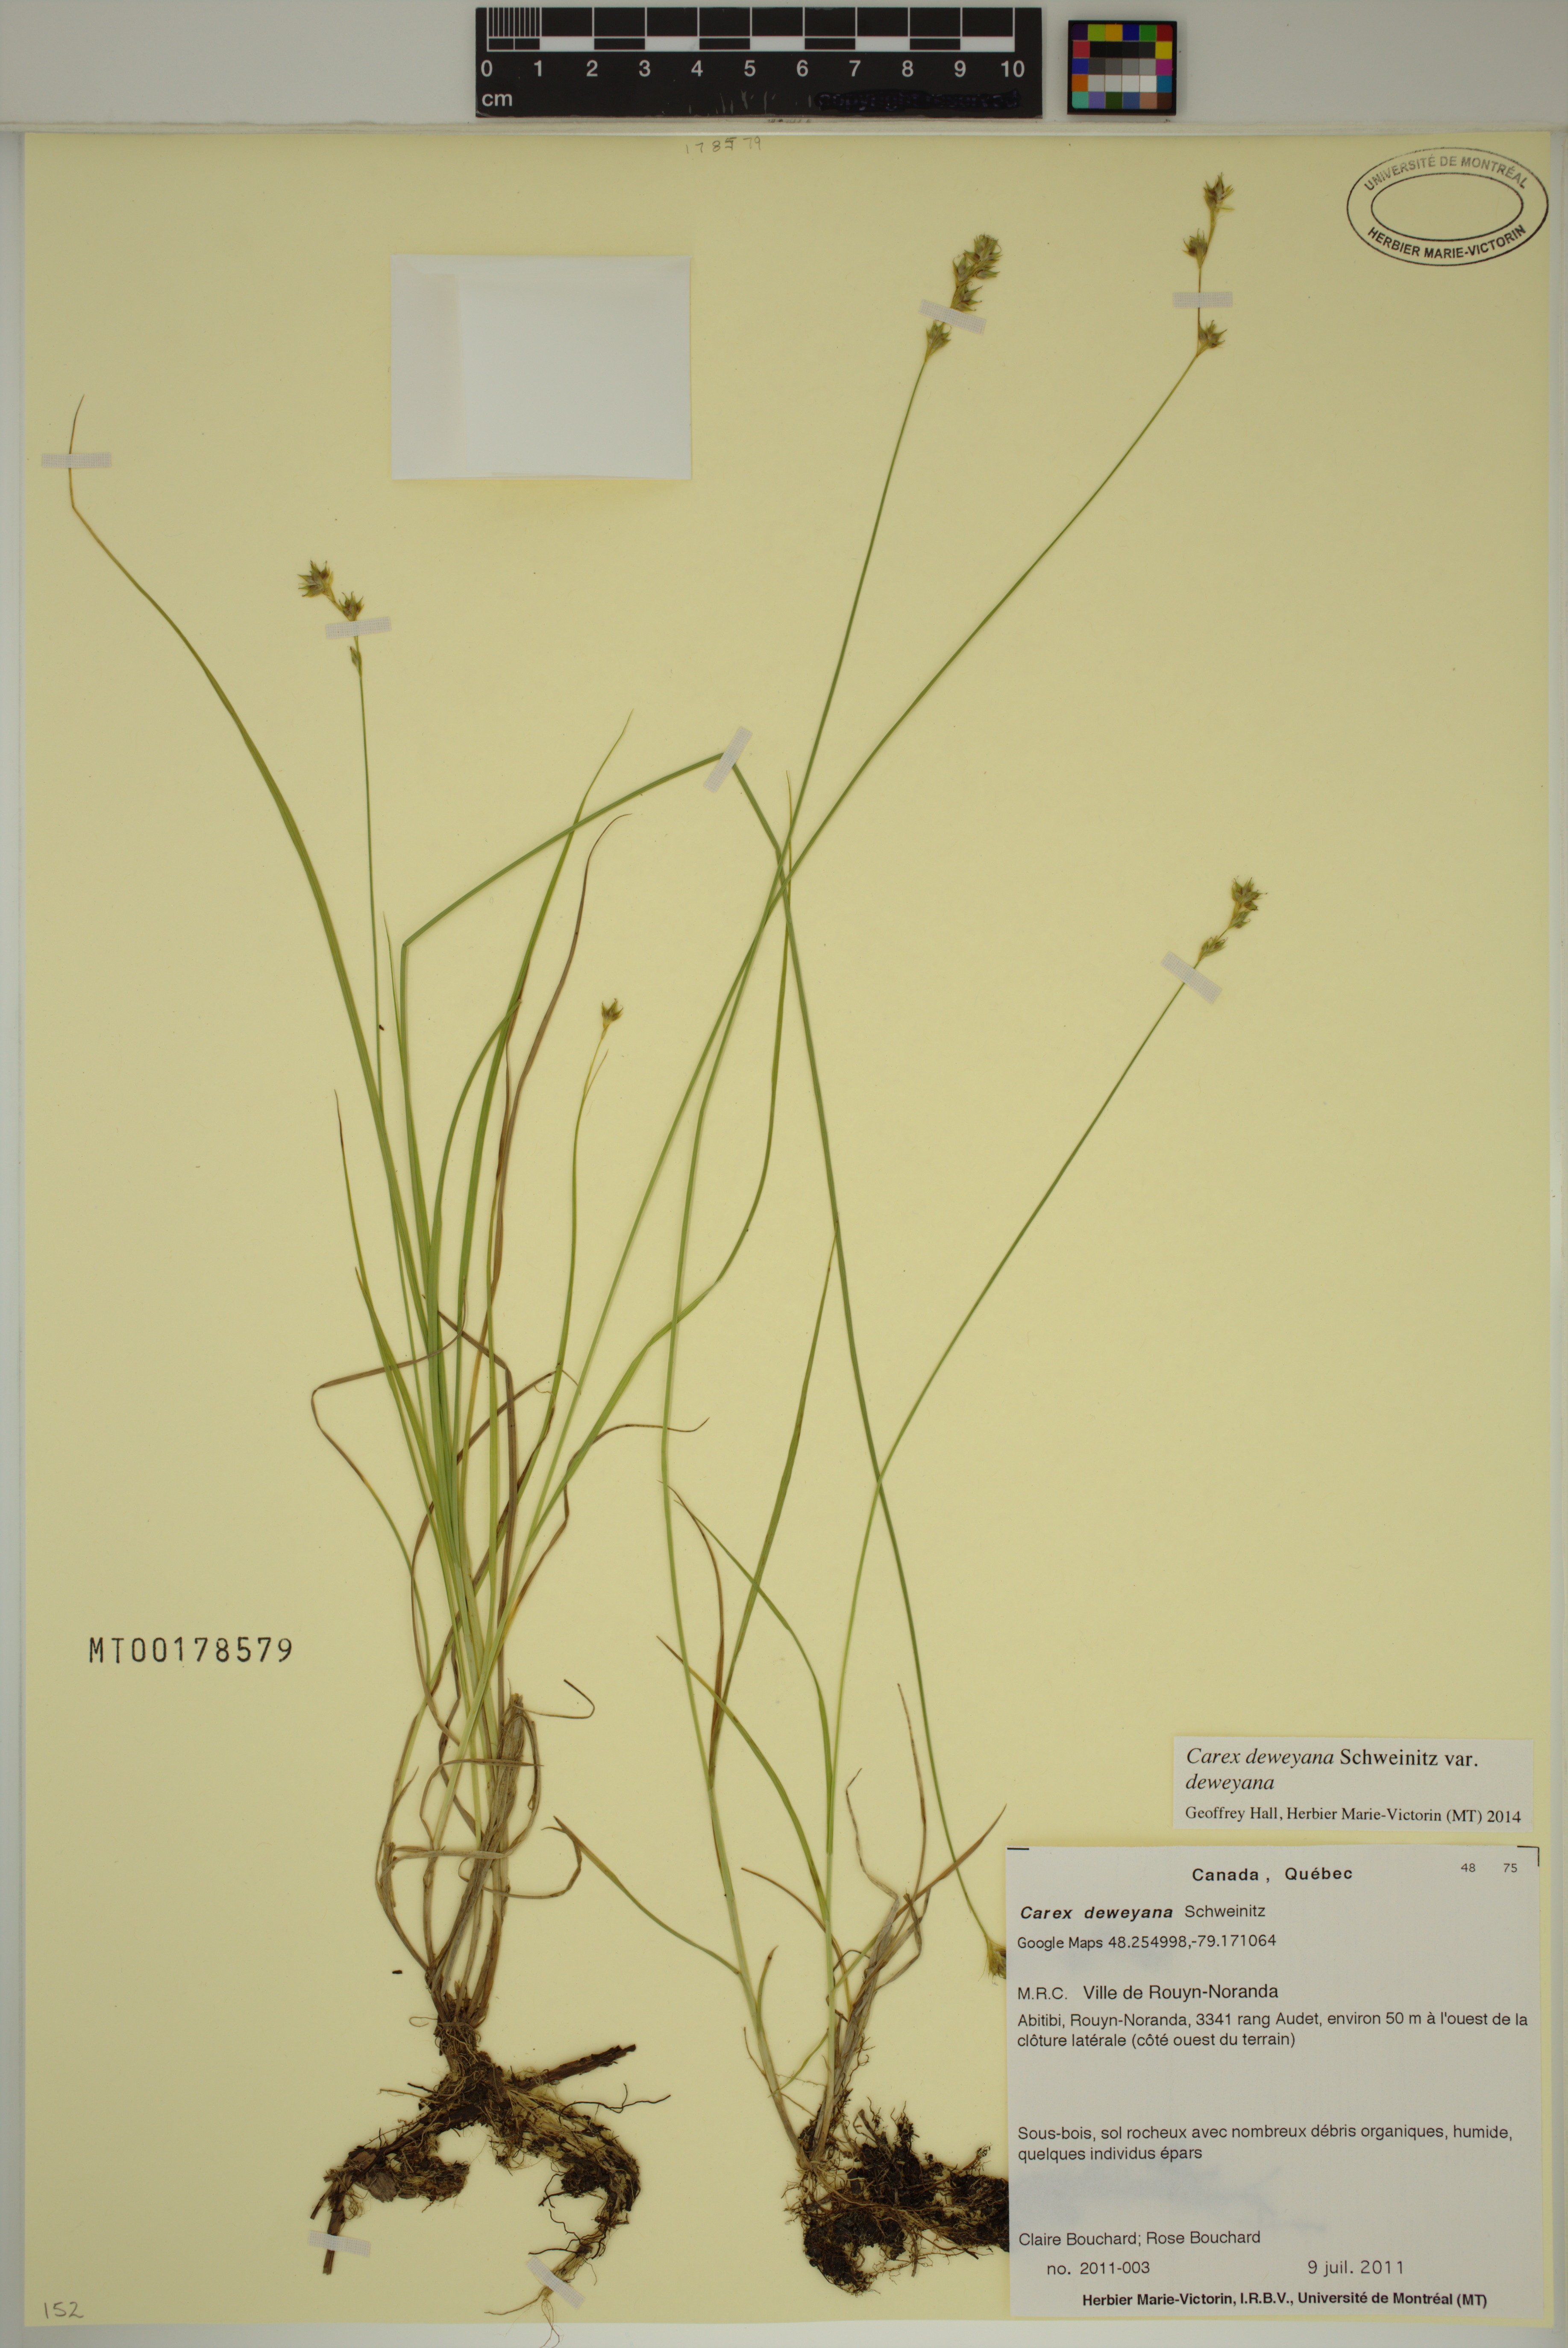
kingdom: Plantae
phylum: Tracheophyta
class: Liliopsida
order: Poales
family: Cyperaceae
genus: Carex
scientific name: Carex deweyana
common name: Dewey's sedge
